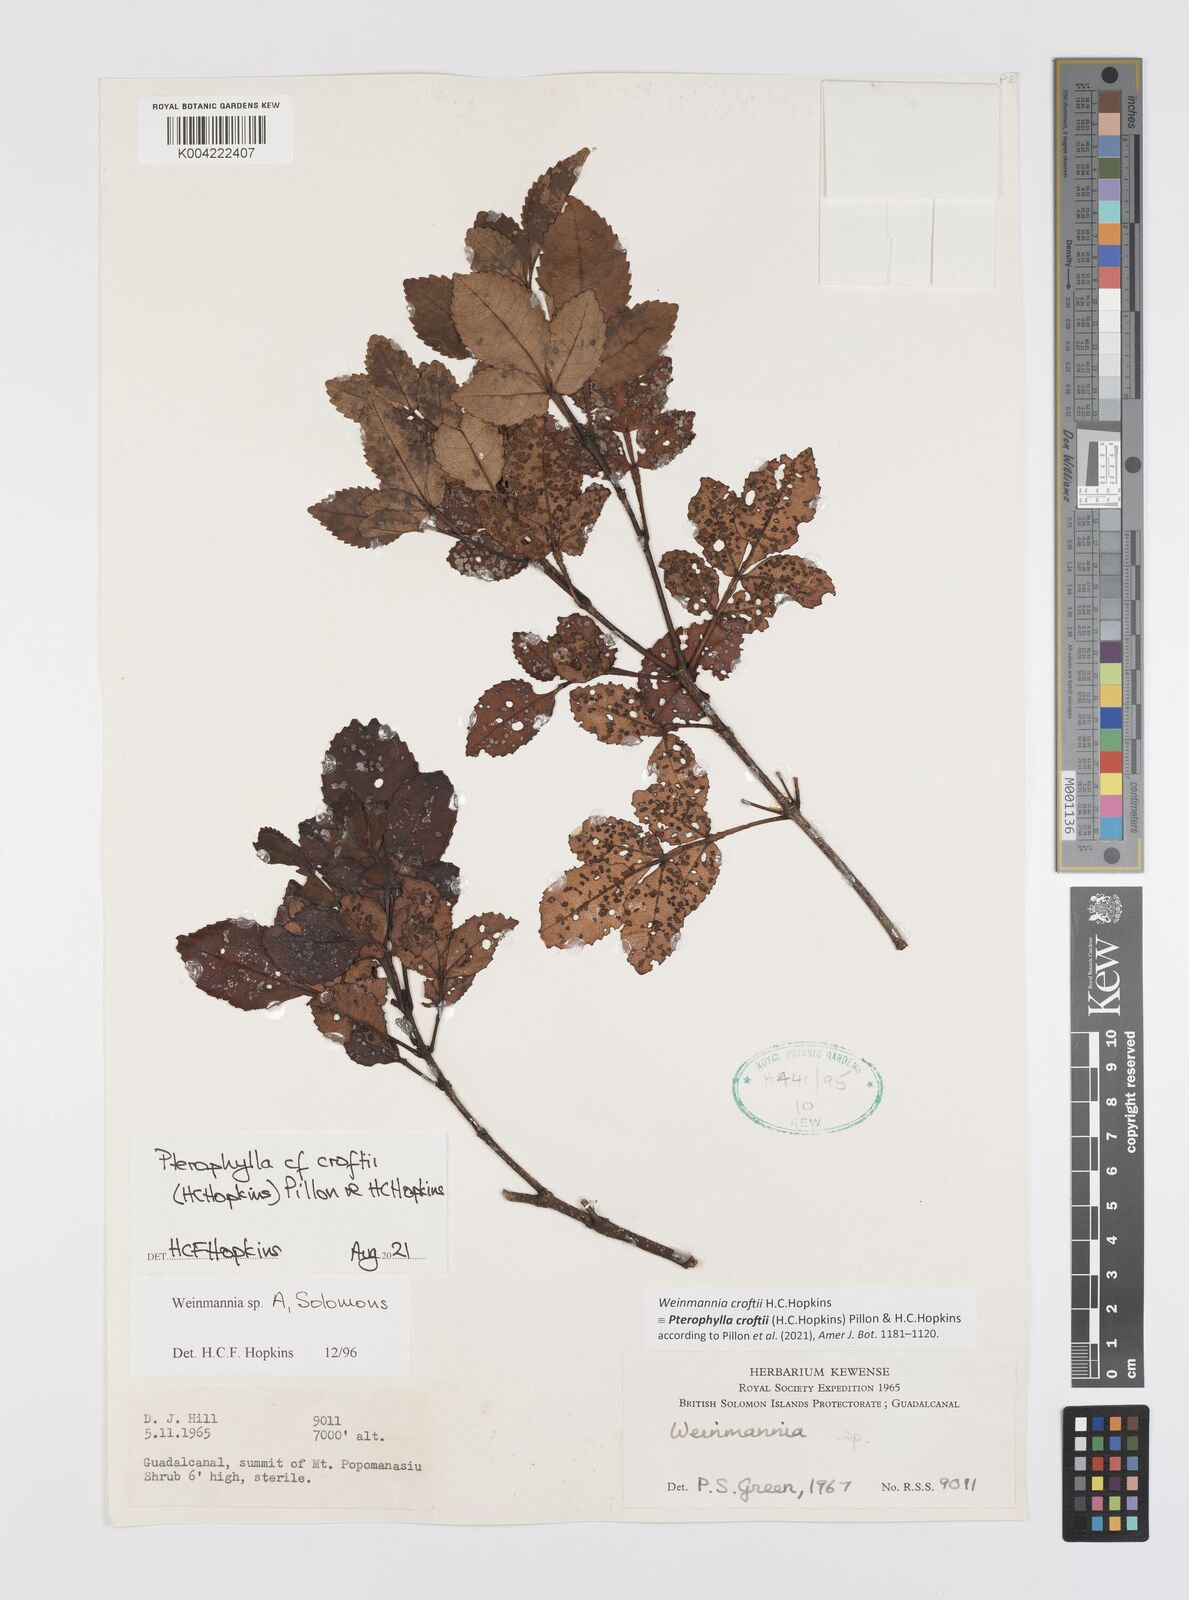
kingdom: Plantae
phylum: Tracheophyta
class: Magnoliopsida
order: Oxalidales
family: Cunoniaceae
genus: Pterophylla
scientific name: Pterophylla croftii
